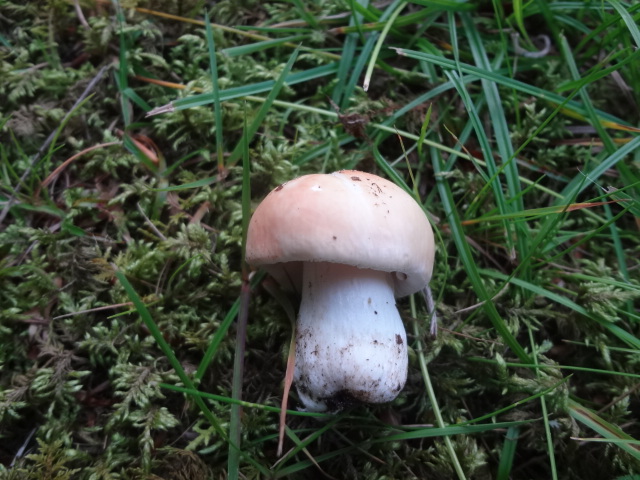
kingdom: Fungi
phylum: Basidiomycota
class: Agaricomycetes
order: Russulales
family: Russulaceae
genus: Russula
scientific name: Russula aurora
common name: rosa skørhat
